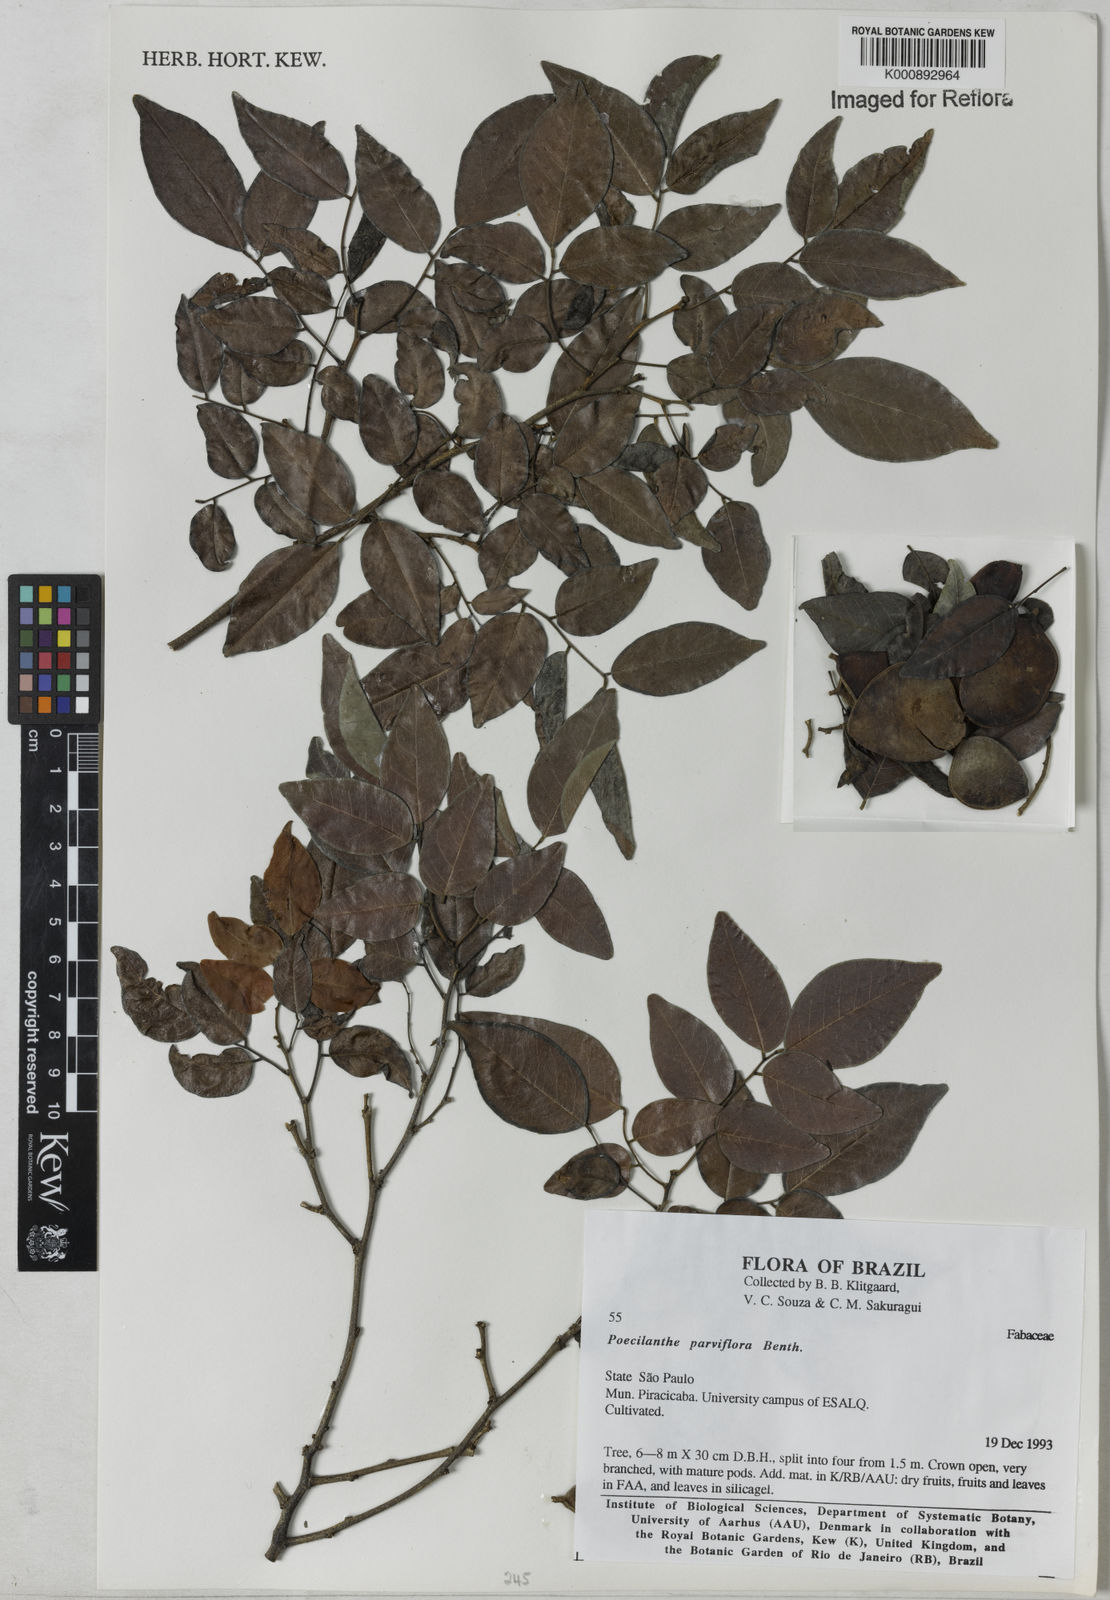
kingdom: Plantae
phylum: Tracheophyta
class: Magnoliopsida
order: Fabales
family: Fabaceae
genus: Poecilanthe
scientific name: Poecilanthe parviflora
